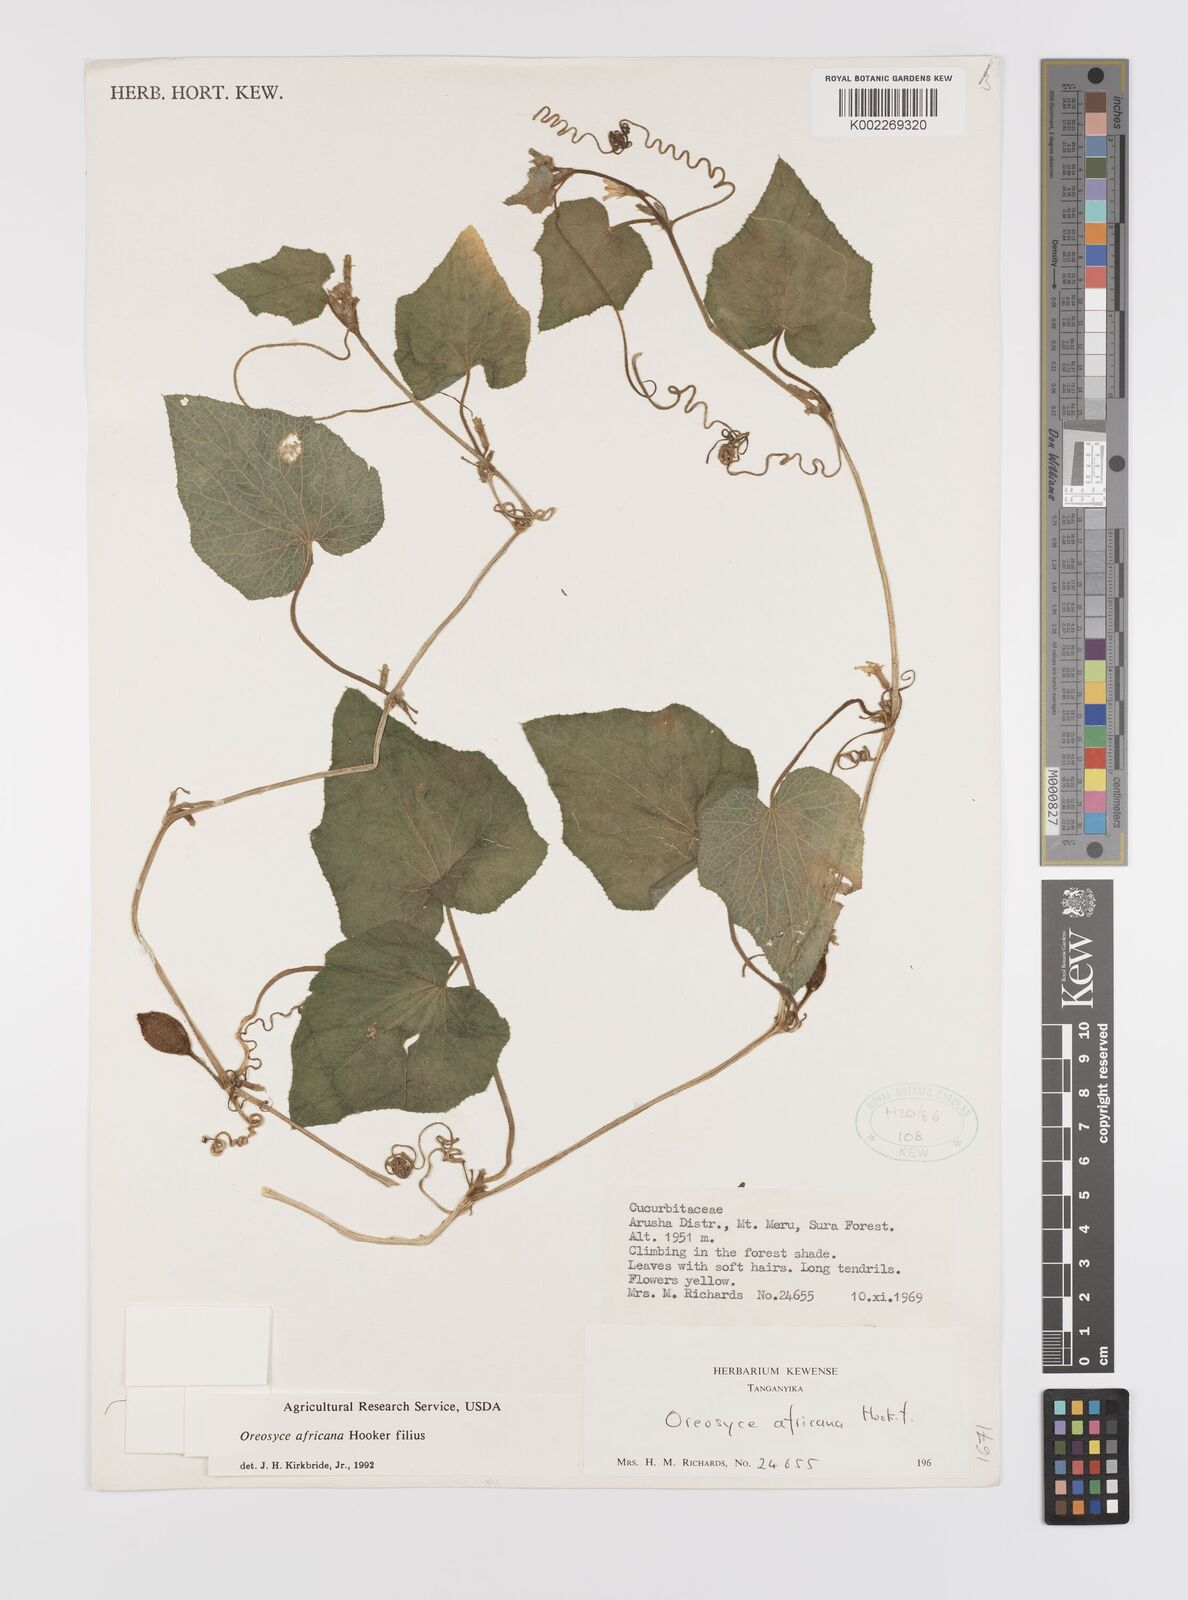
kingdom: Plantae
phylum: Tracheophyta
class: Magnoliopsida
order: Cucurbitales
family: Cucurbitaceae
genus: Cucumis
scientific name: Cucumis oreosyce
